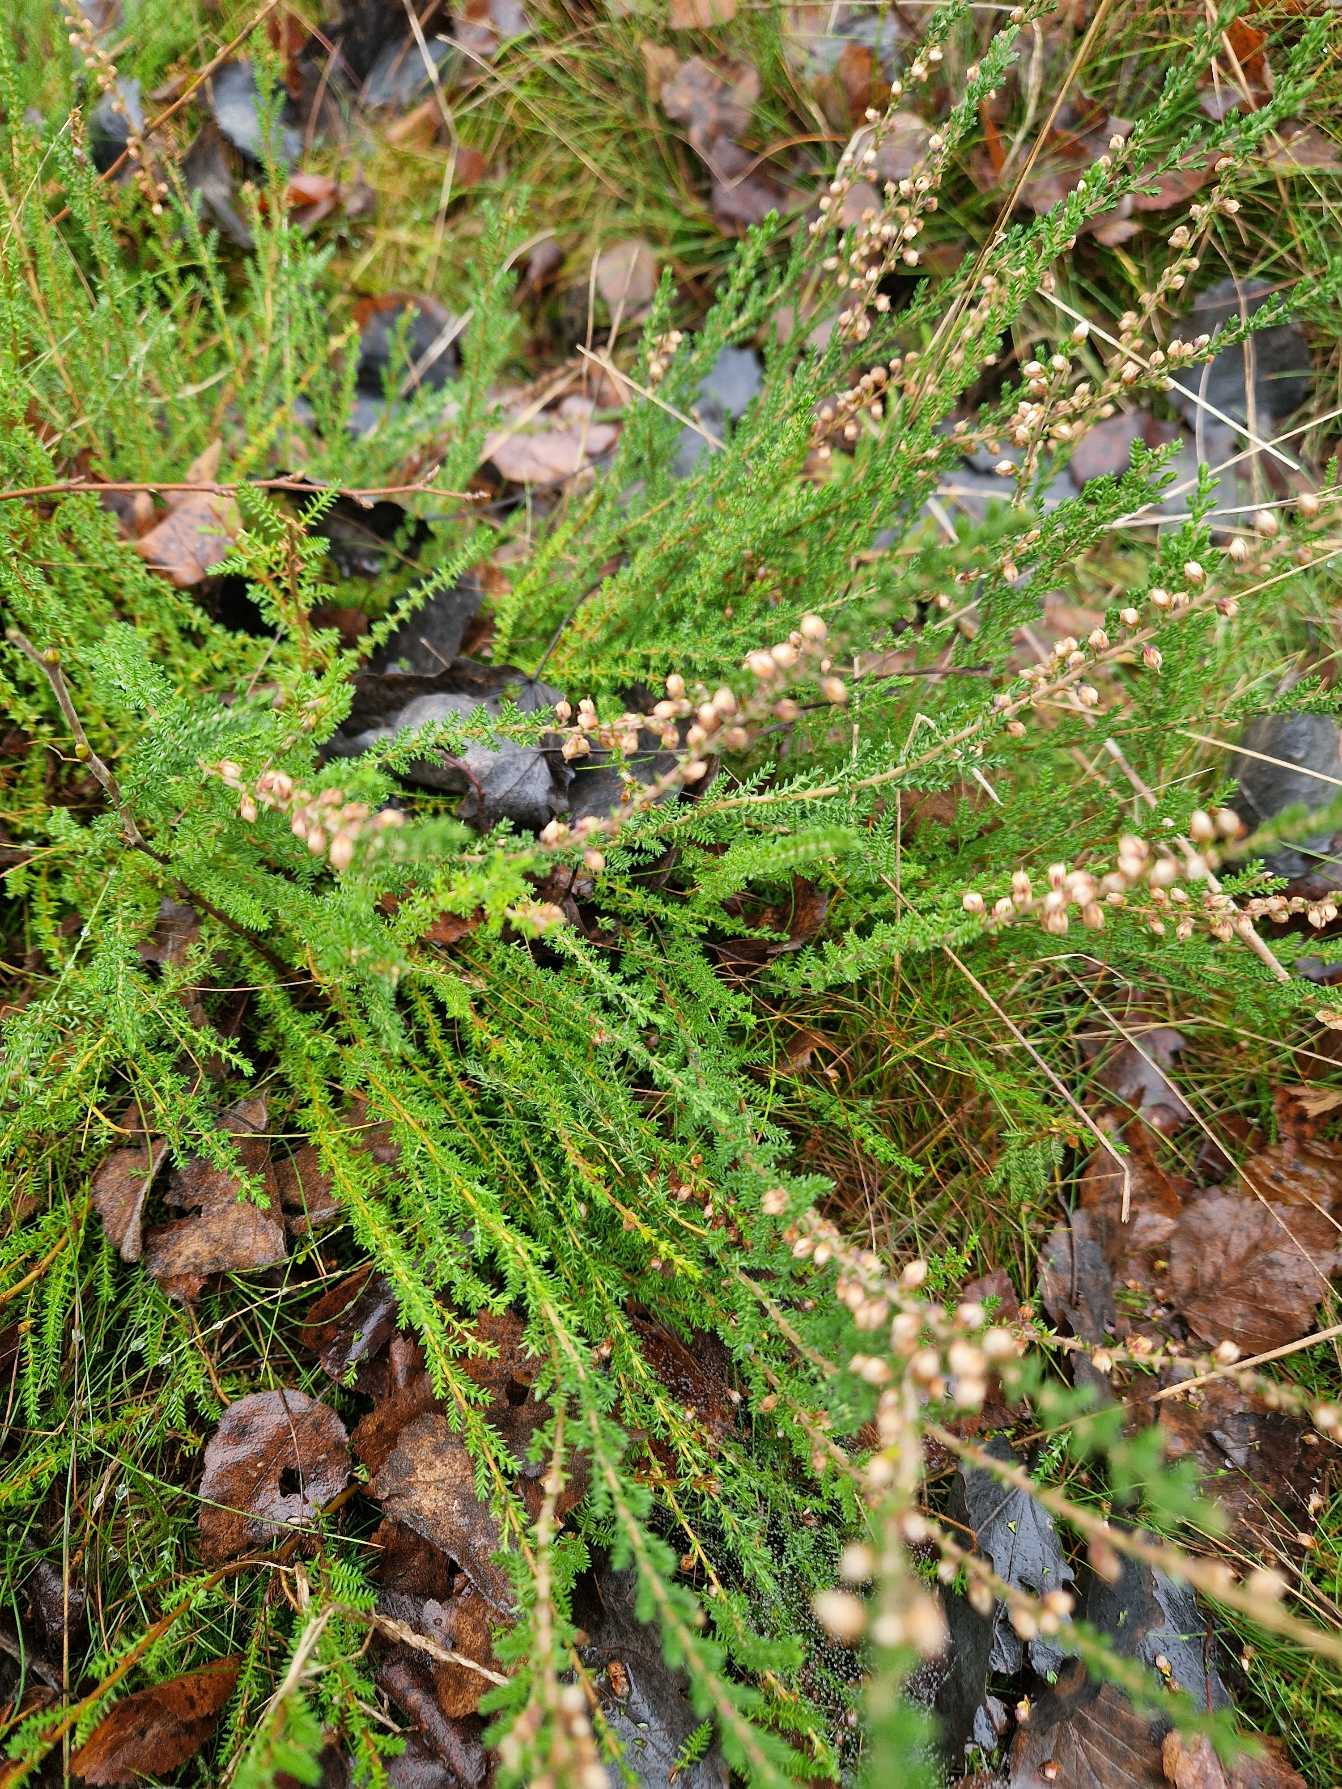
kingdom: Plantae
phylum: Tracheophyta
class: Magnoliopsida
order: Ericales
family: Ericaceae
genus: Calluna
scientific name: Calluna vulgaris
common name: Hedelyng
